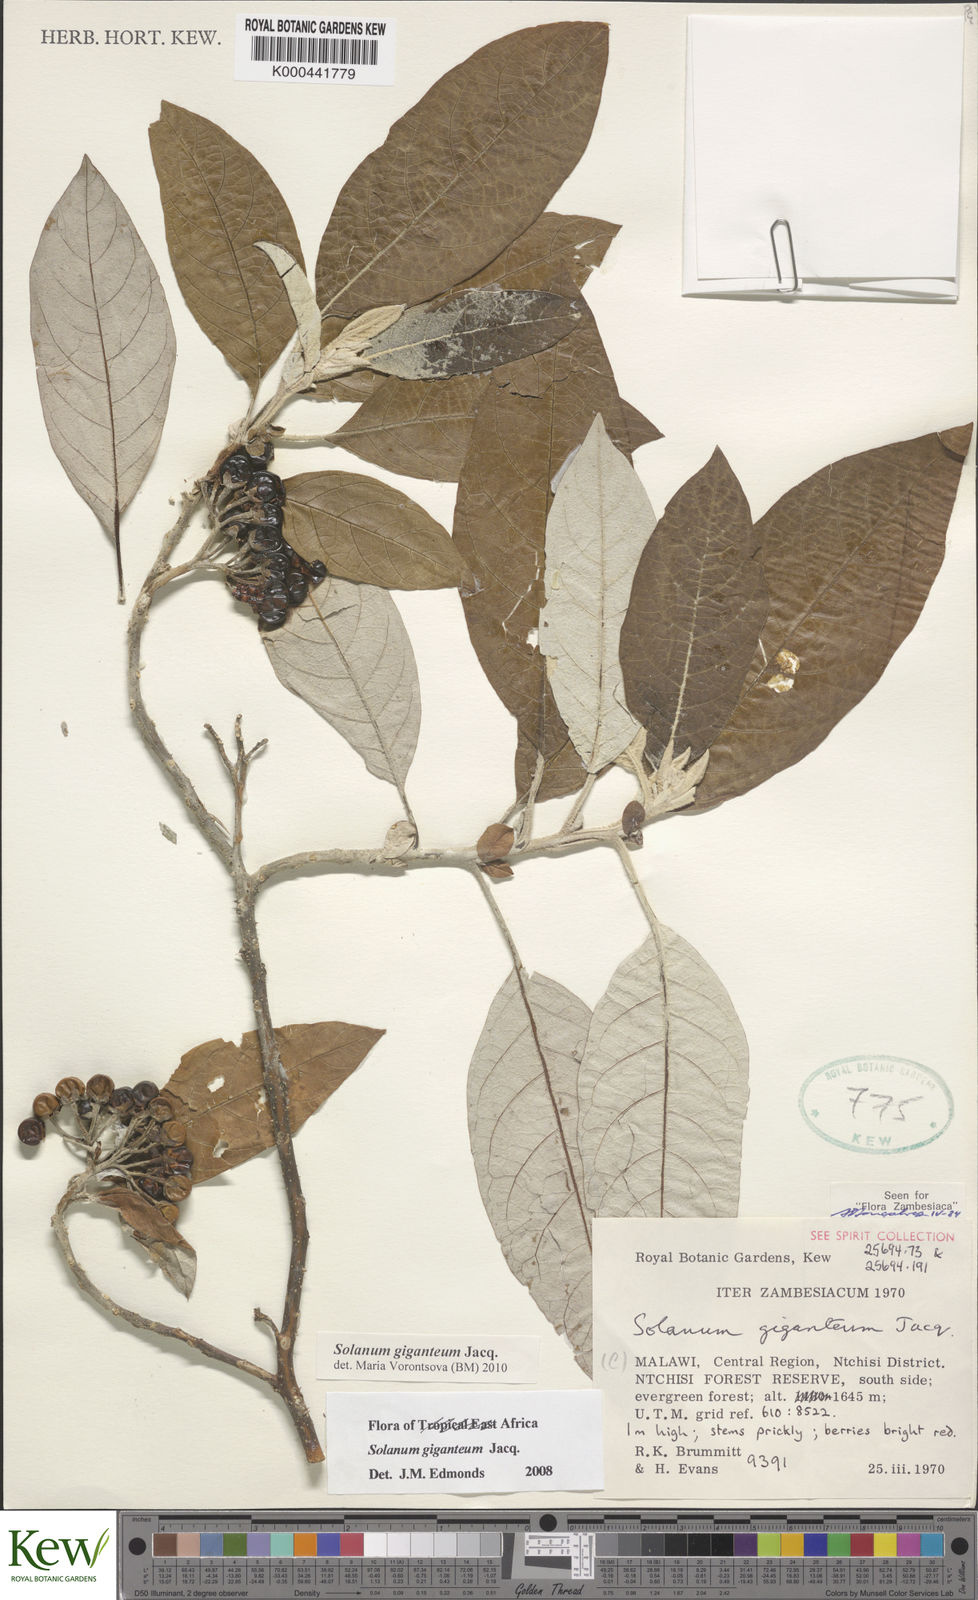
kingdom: Plantae
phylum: Tracheophyta
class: Magnoliopsida
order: Solanales
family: Solanaceae
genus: Solanum
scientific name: Solanum giganteum
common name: Healing-leaf-tree
